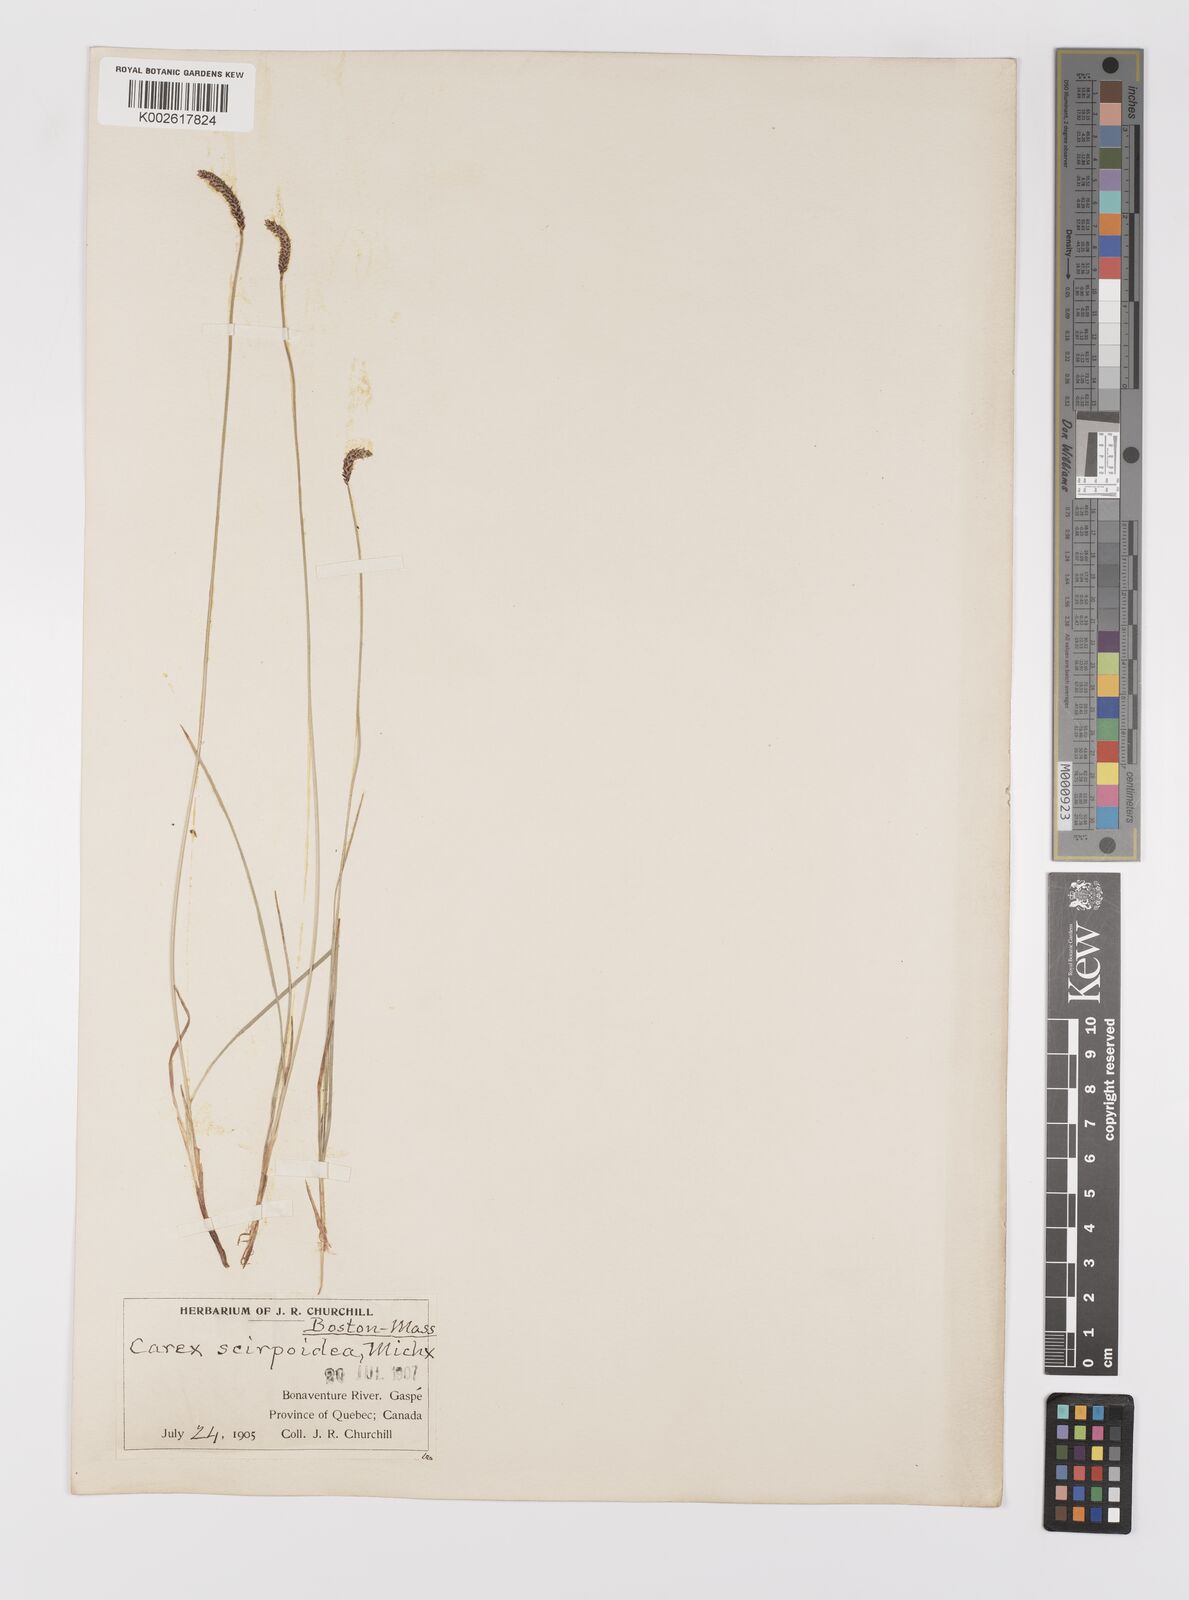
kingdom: Plantae
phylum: Tracheophyta
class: Liliopsida
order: Poales
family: Cyperaceae
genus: Carex
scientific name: Carex scirpoidea
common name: Canada single-spike sedge
